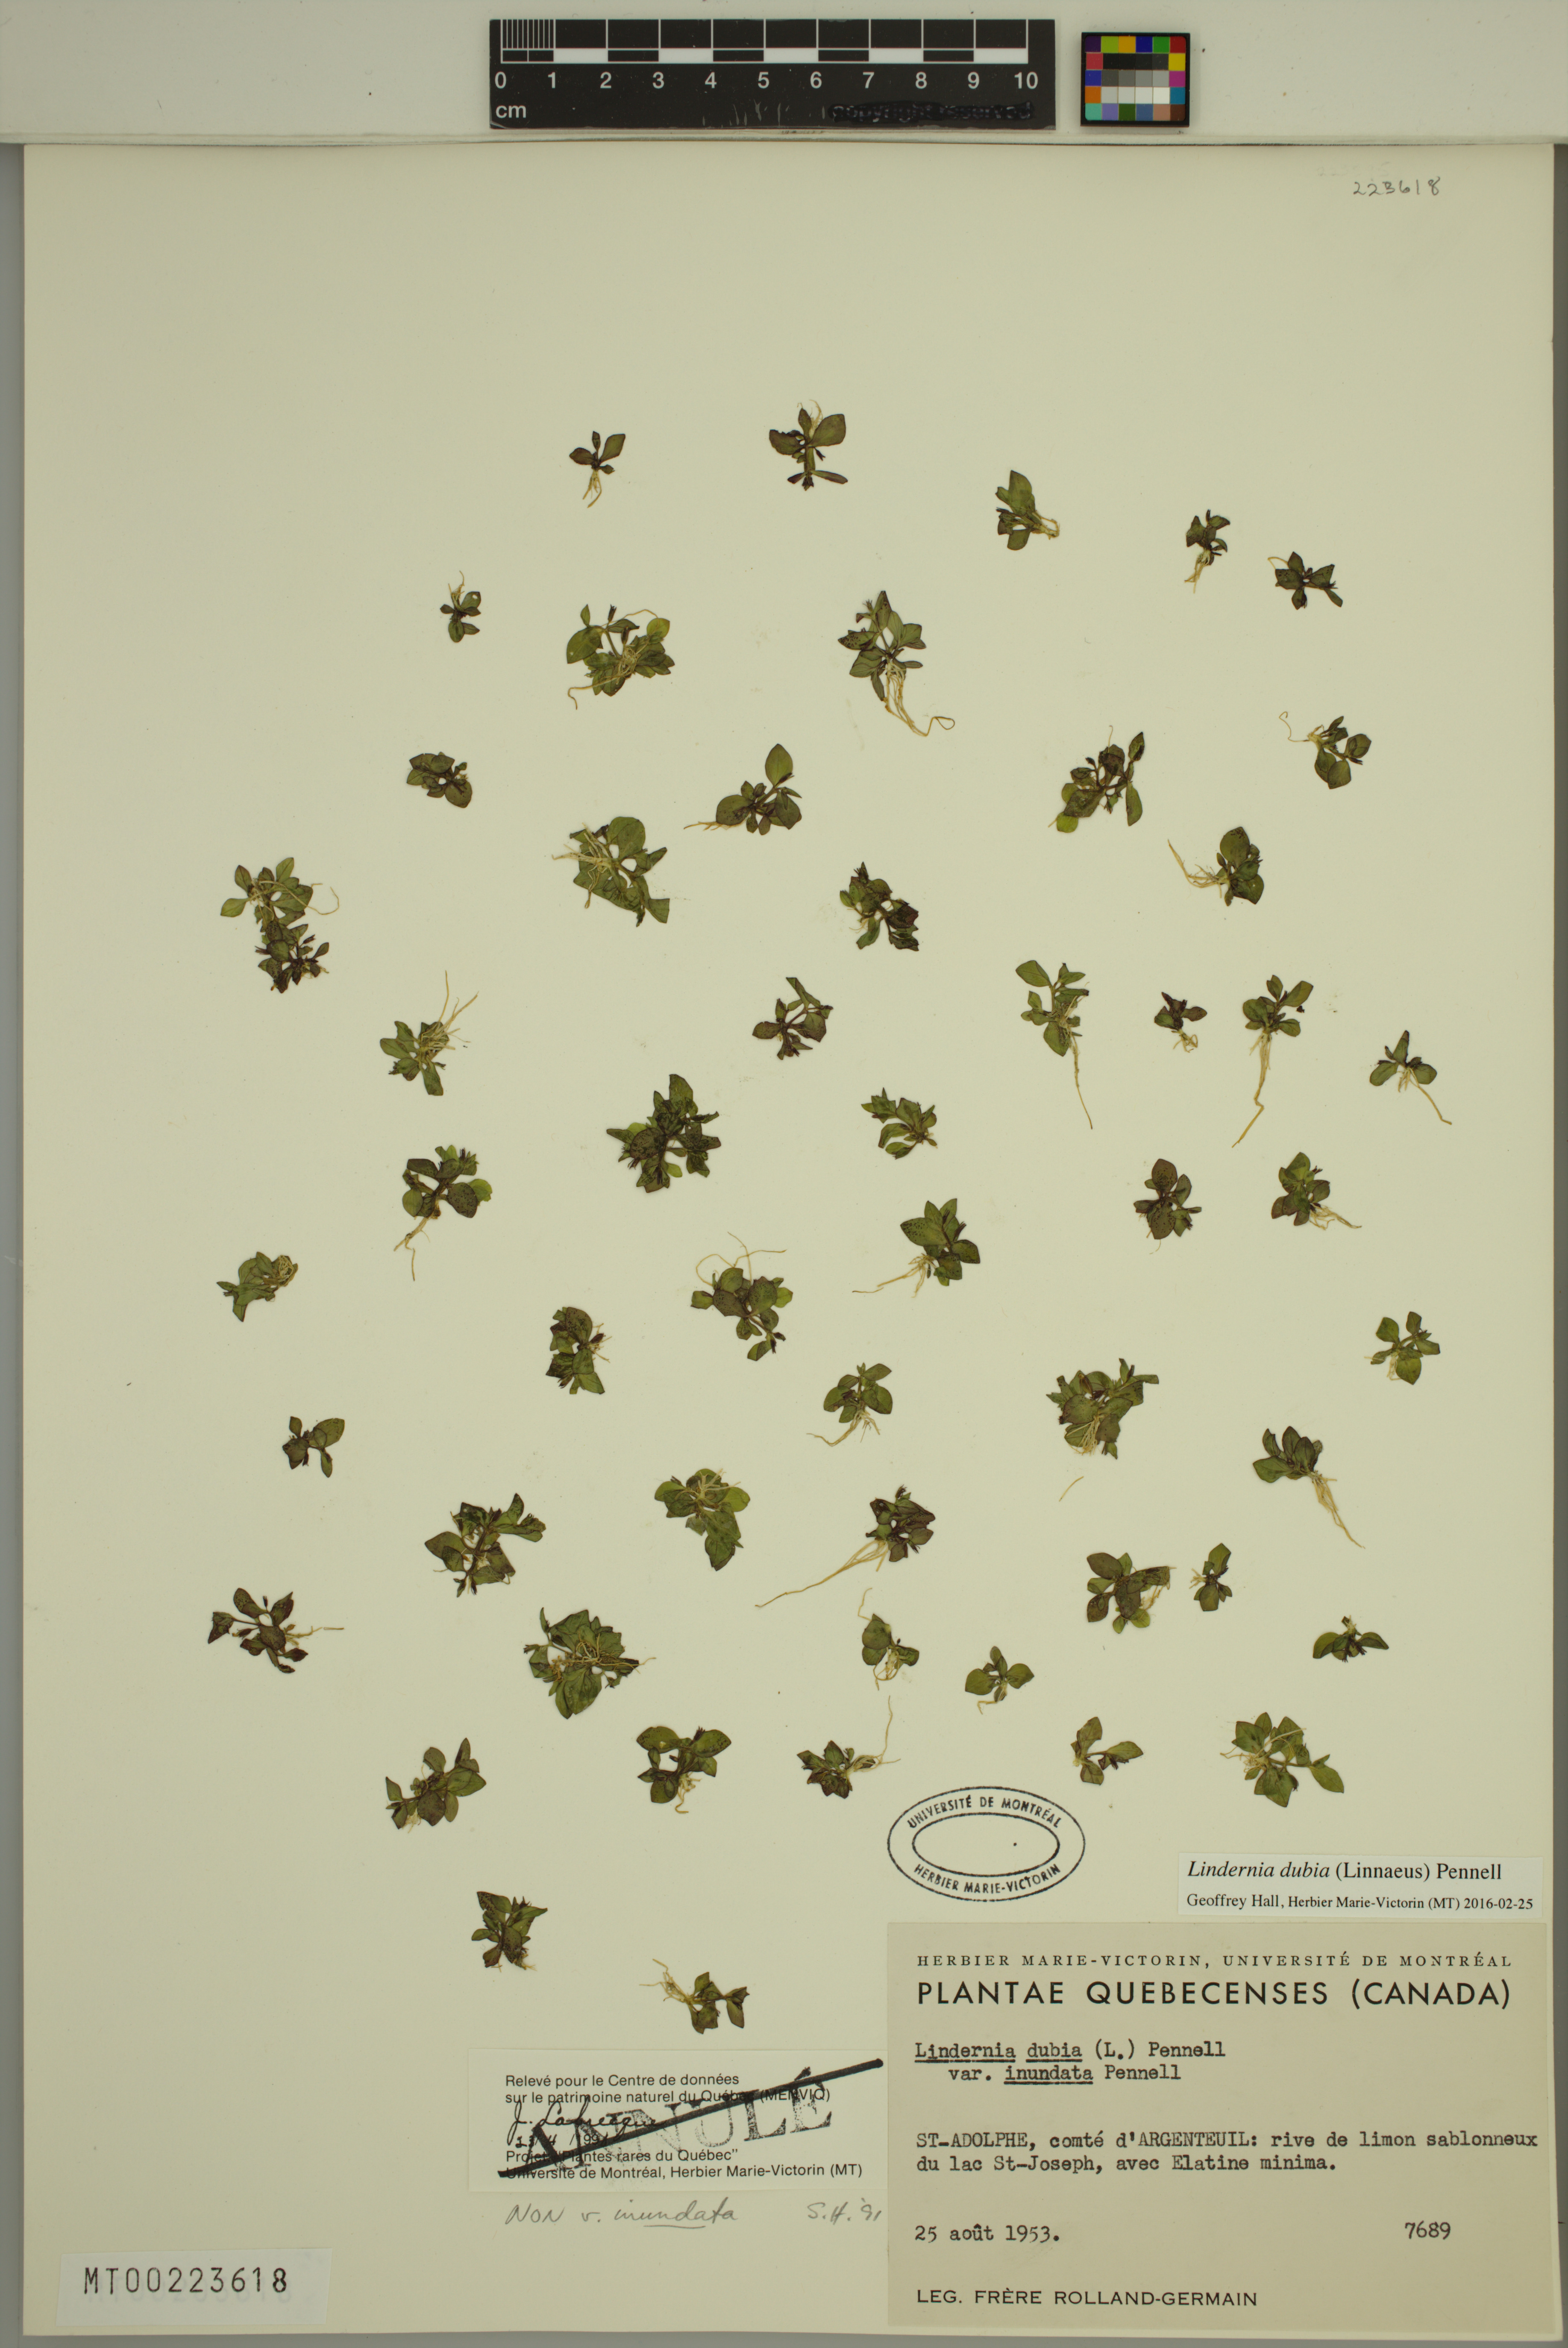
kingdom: Plantae
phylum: Tracheophyta
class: Magnoliopsida
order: Lamiales
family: Linderniaceae
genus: Lindernia
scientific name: Lindernia dubia
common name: Annual false pimpernel
